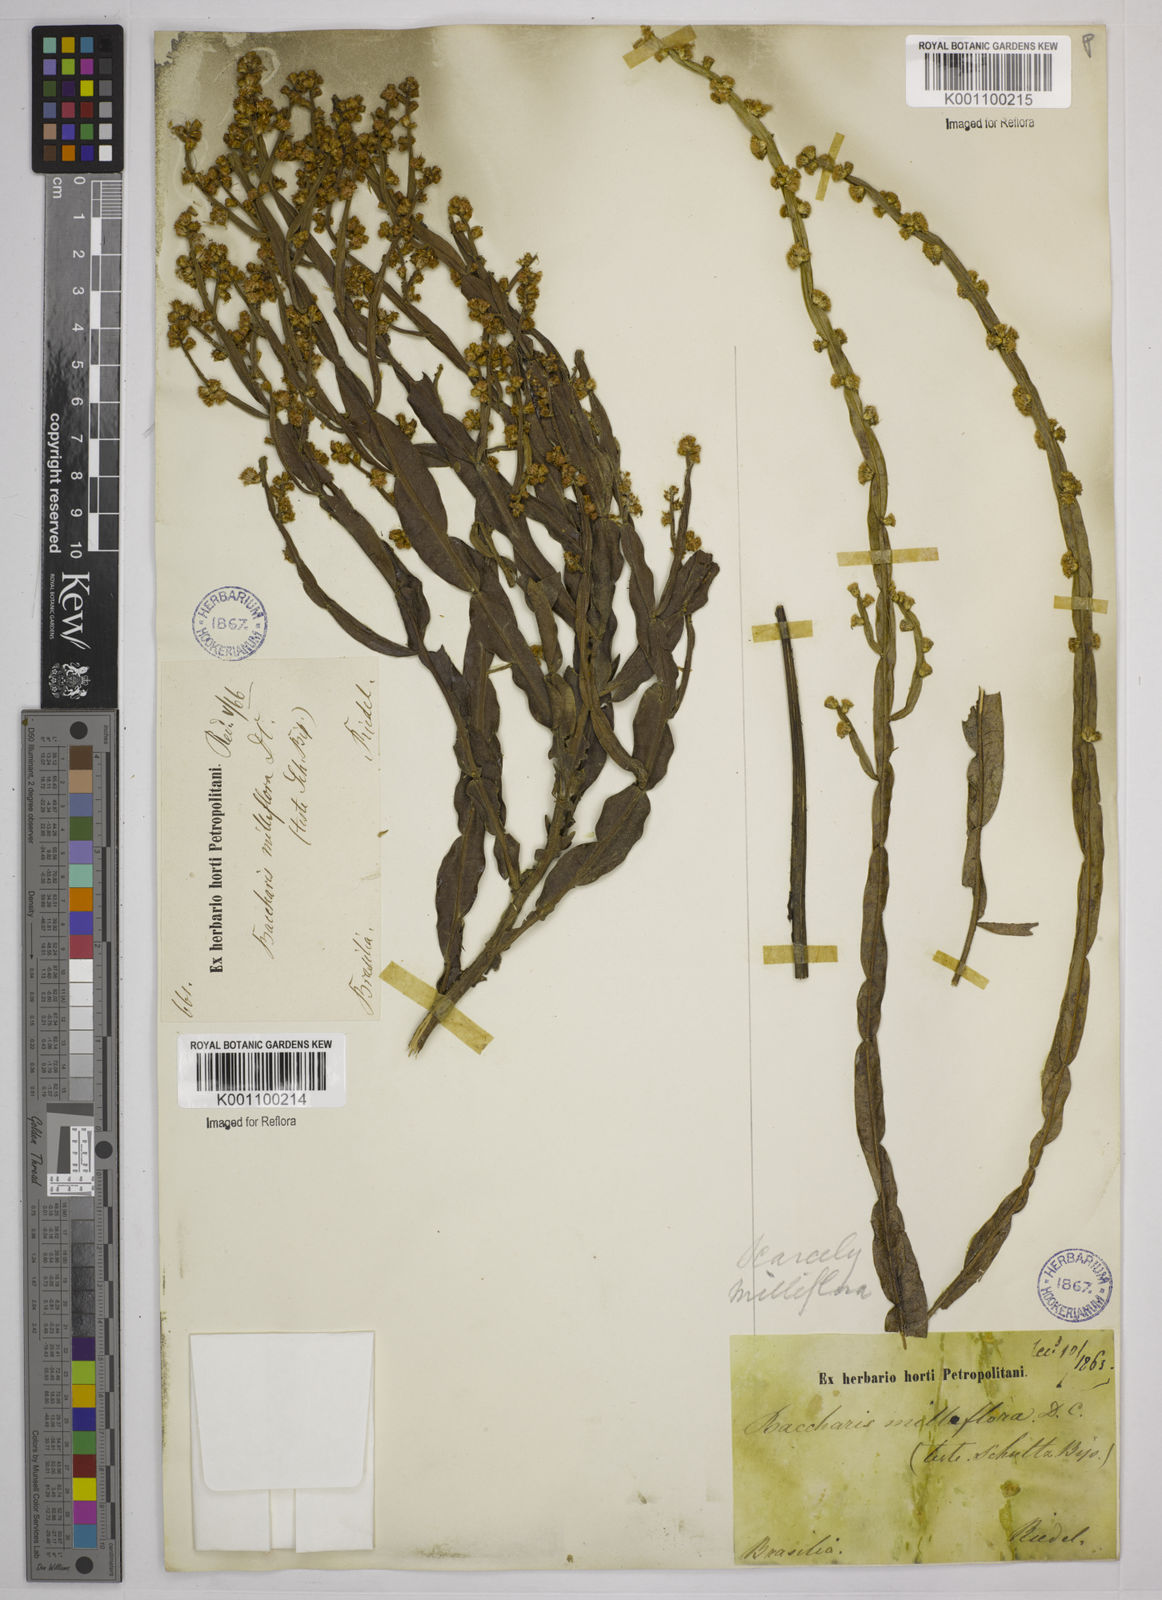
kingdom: Plantae
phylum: Tracheophyta
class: Magnoliopsida
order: Asterales
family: Asteraceae
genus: Baccharis
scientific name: Baccharis milleflora
